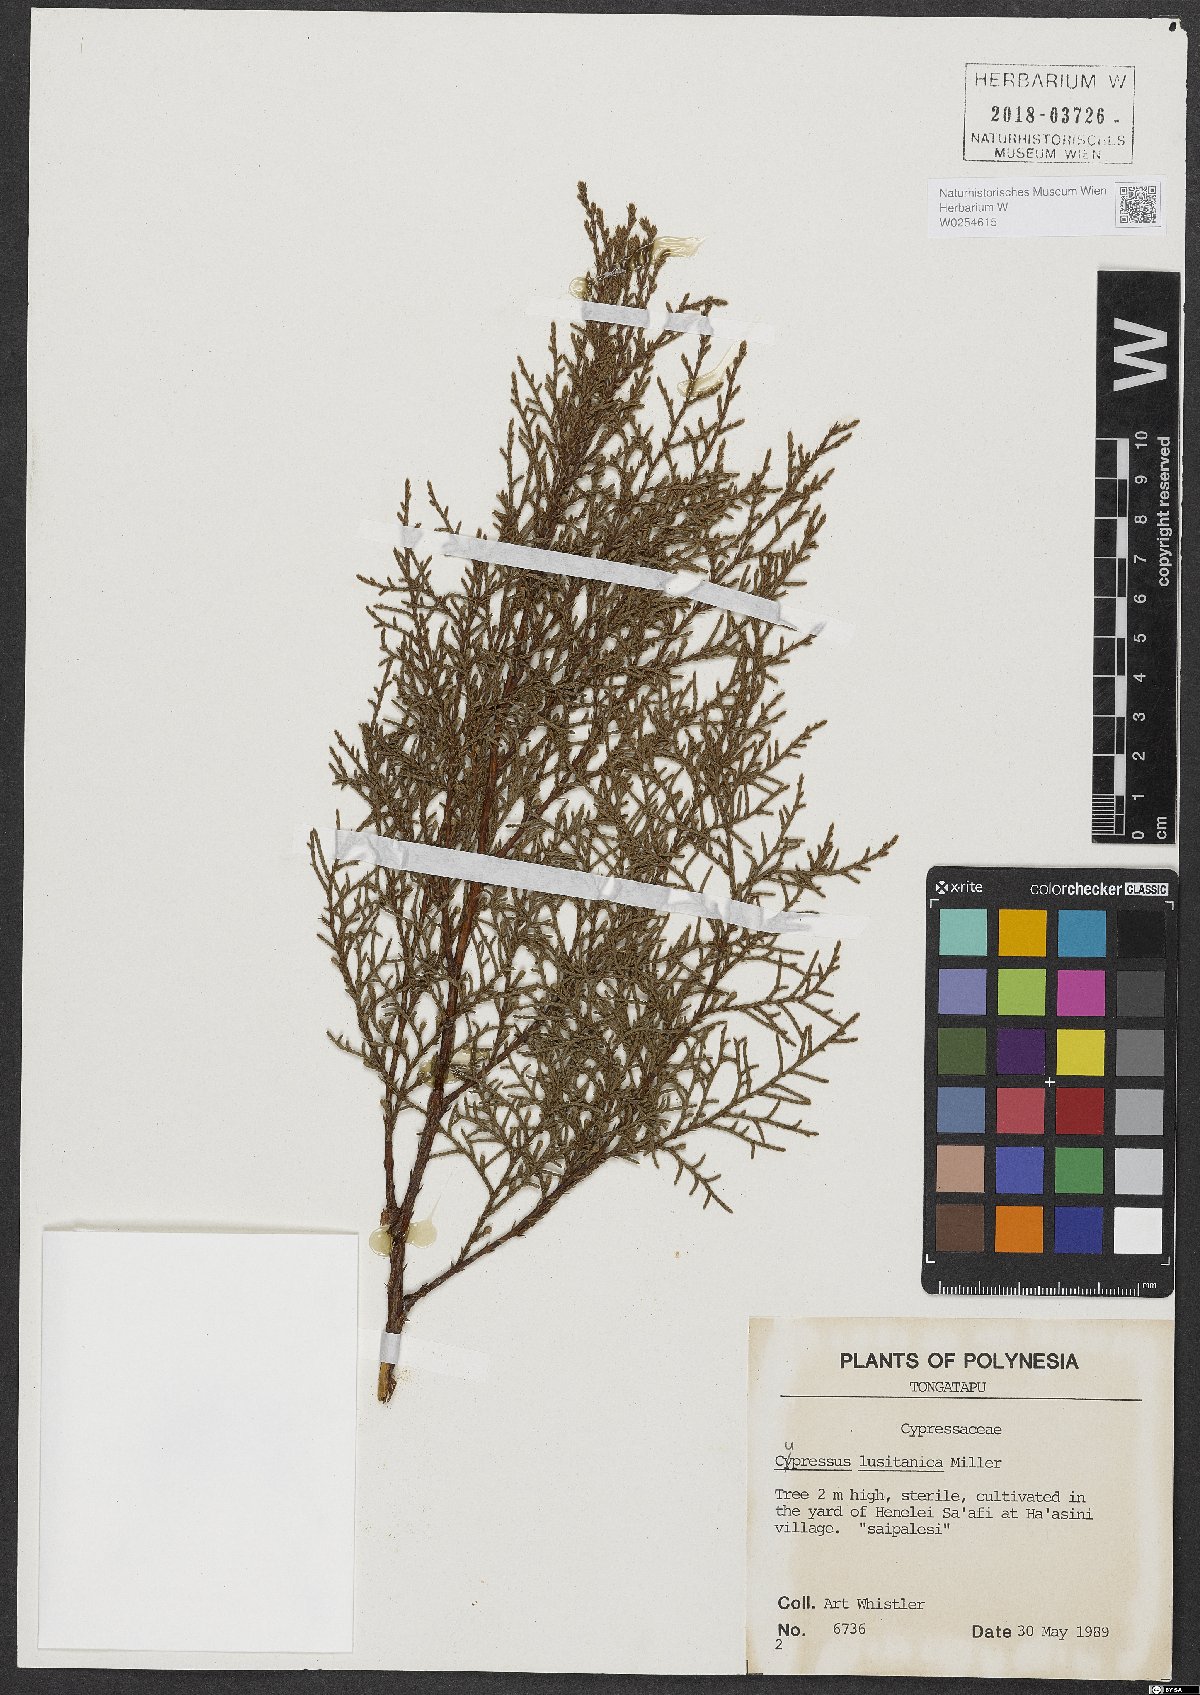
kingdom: Plantae
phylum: Tracheophyta
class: Pinopsida
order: Pinales
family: Cupressaceae
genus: Cupressus
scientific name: Cupressus lusitanica
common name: Mexican cypress
